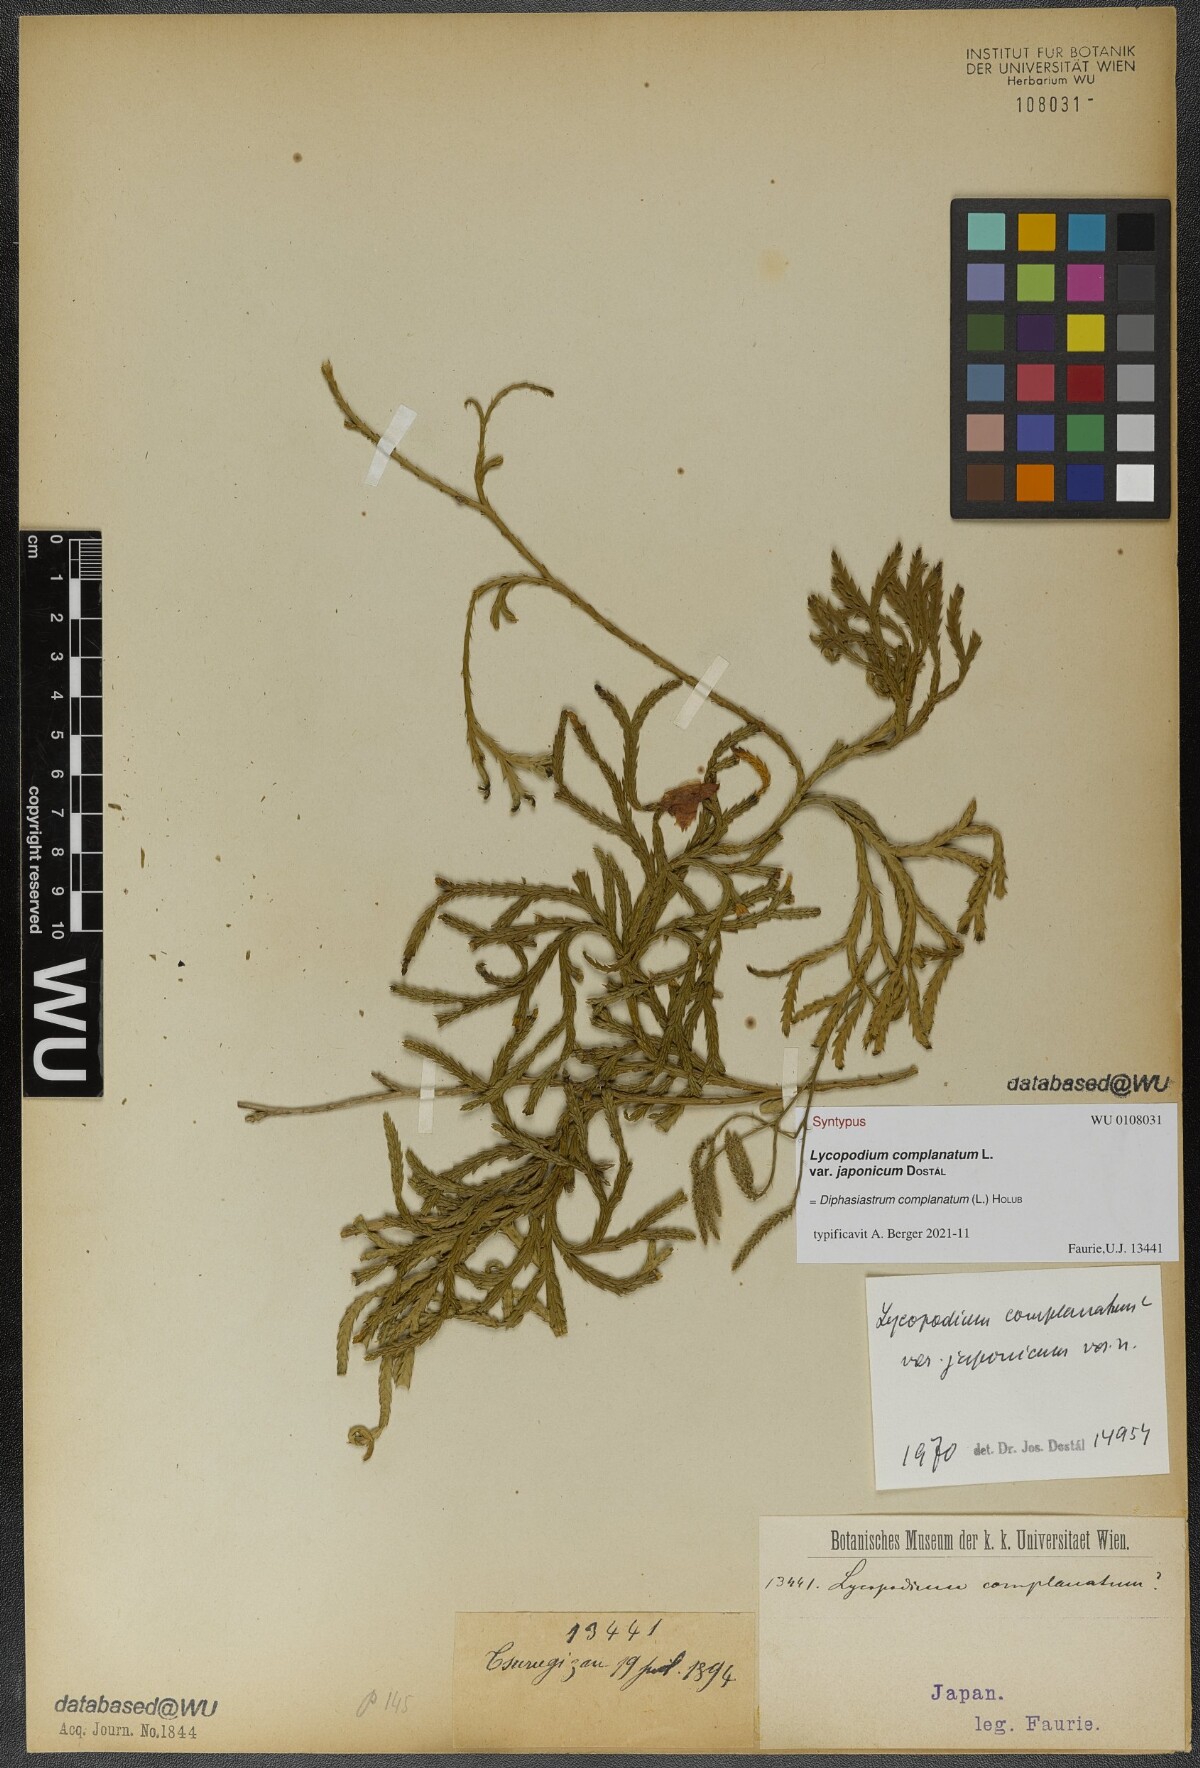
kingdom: Plantae
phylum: Tracheophyta
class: Lycopodiopsida
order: Lycopodiales
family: Lycopodiaceae
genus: Diphasiastrum
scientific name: Diphasiastrum complanatum
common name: Northern running-pine
